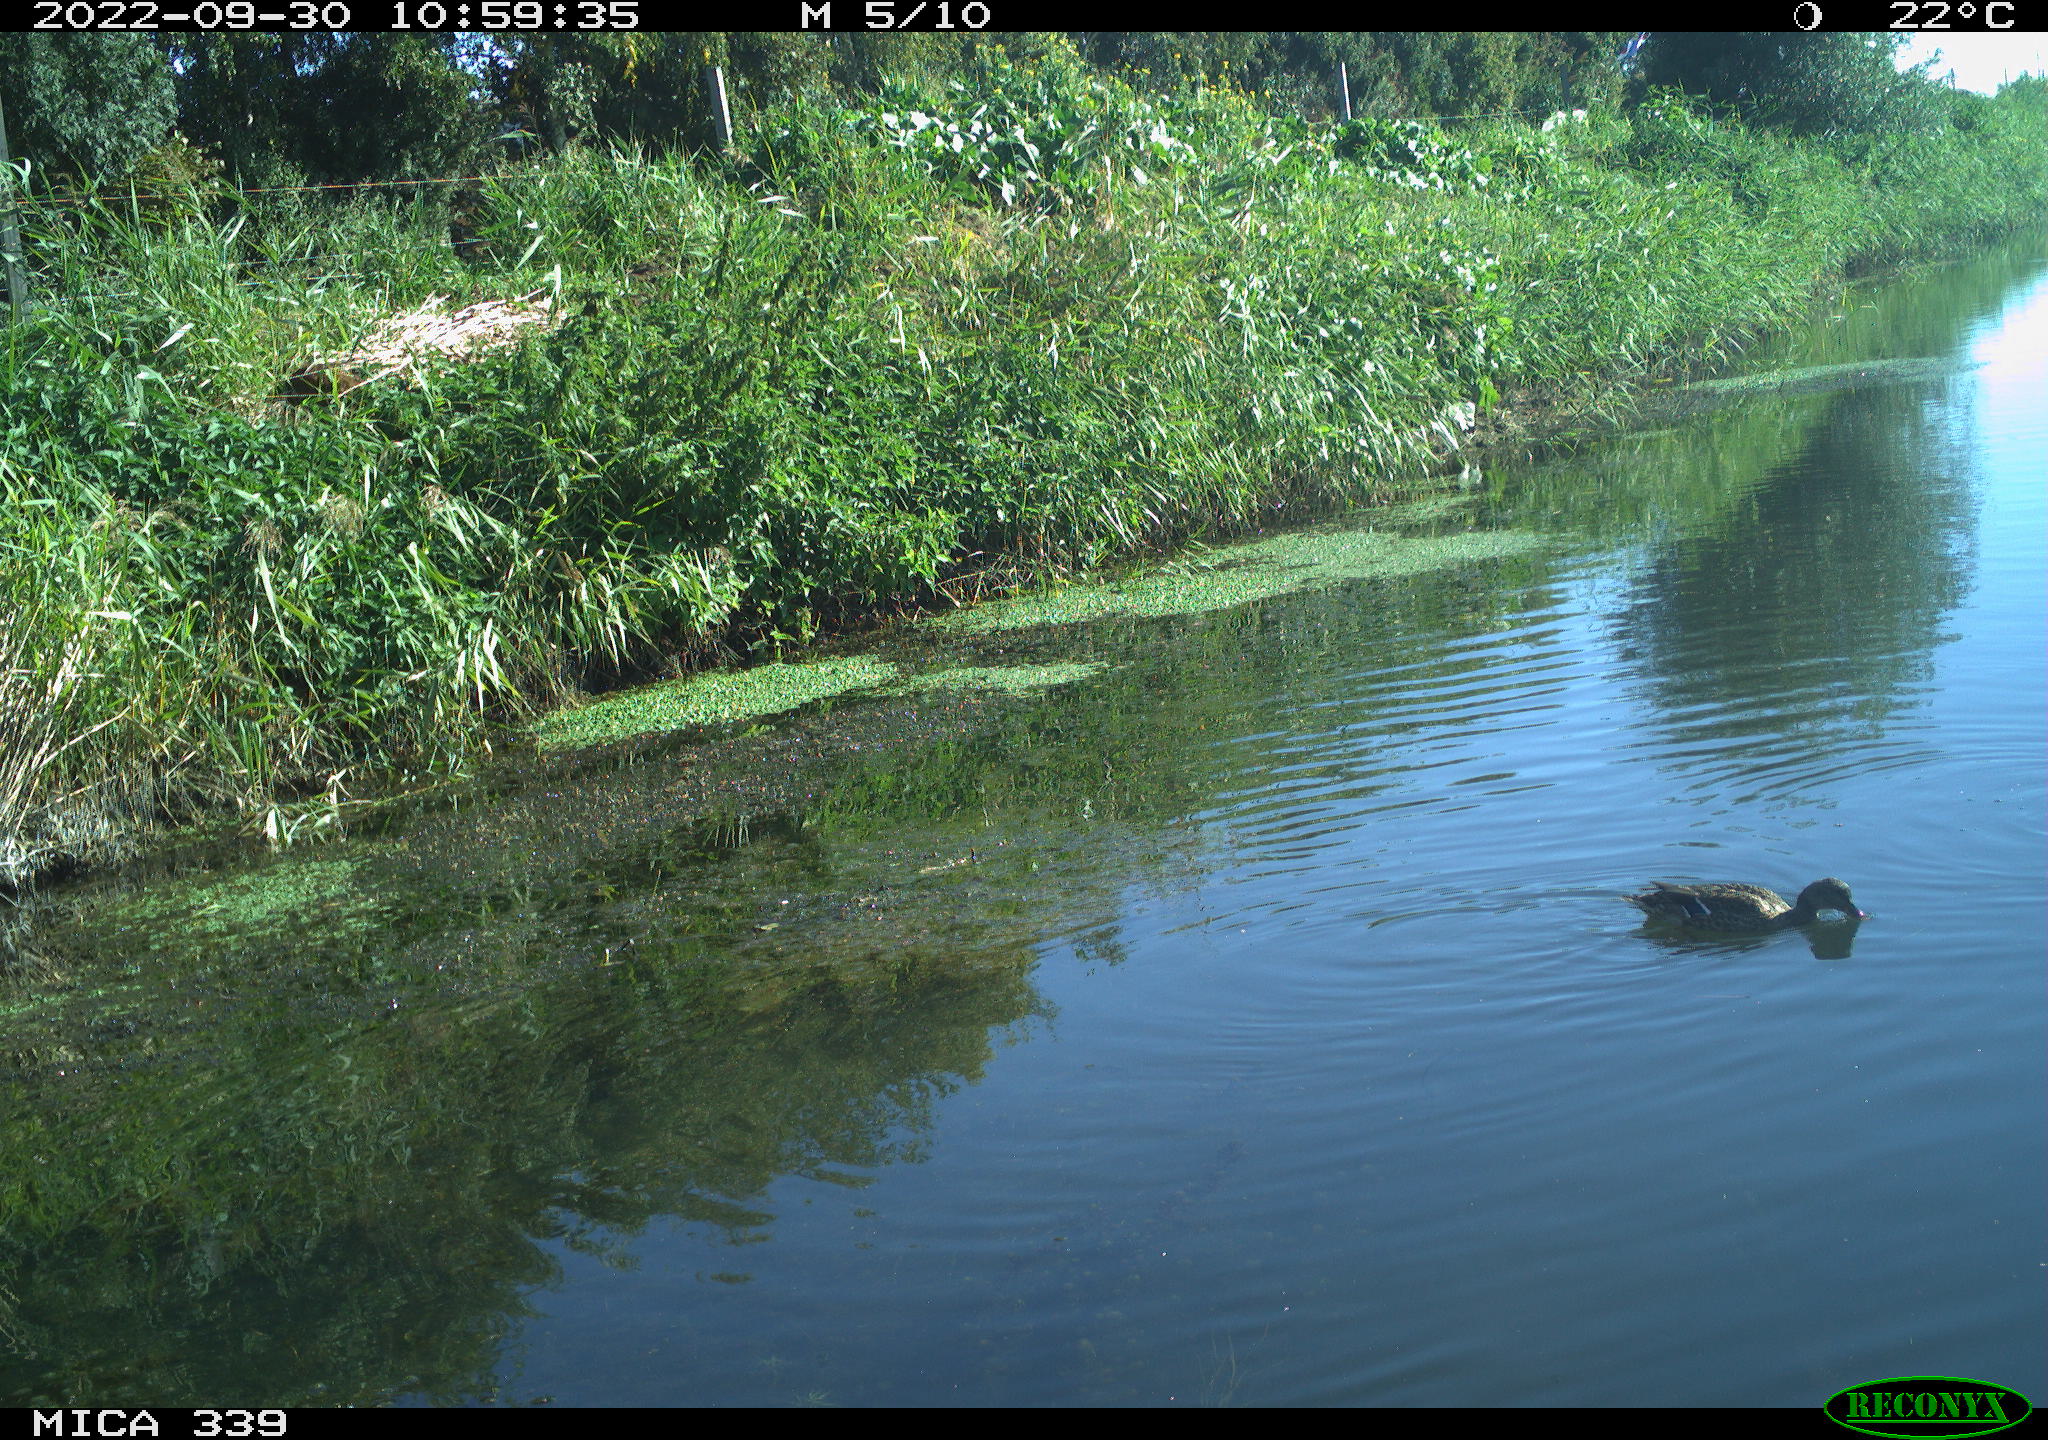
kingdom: Animalia
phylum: Chordata
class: Aves
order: Anseriformes
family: Anatidae
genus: Anas
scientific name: Anas platyrhynchos
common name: Mallard
